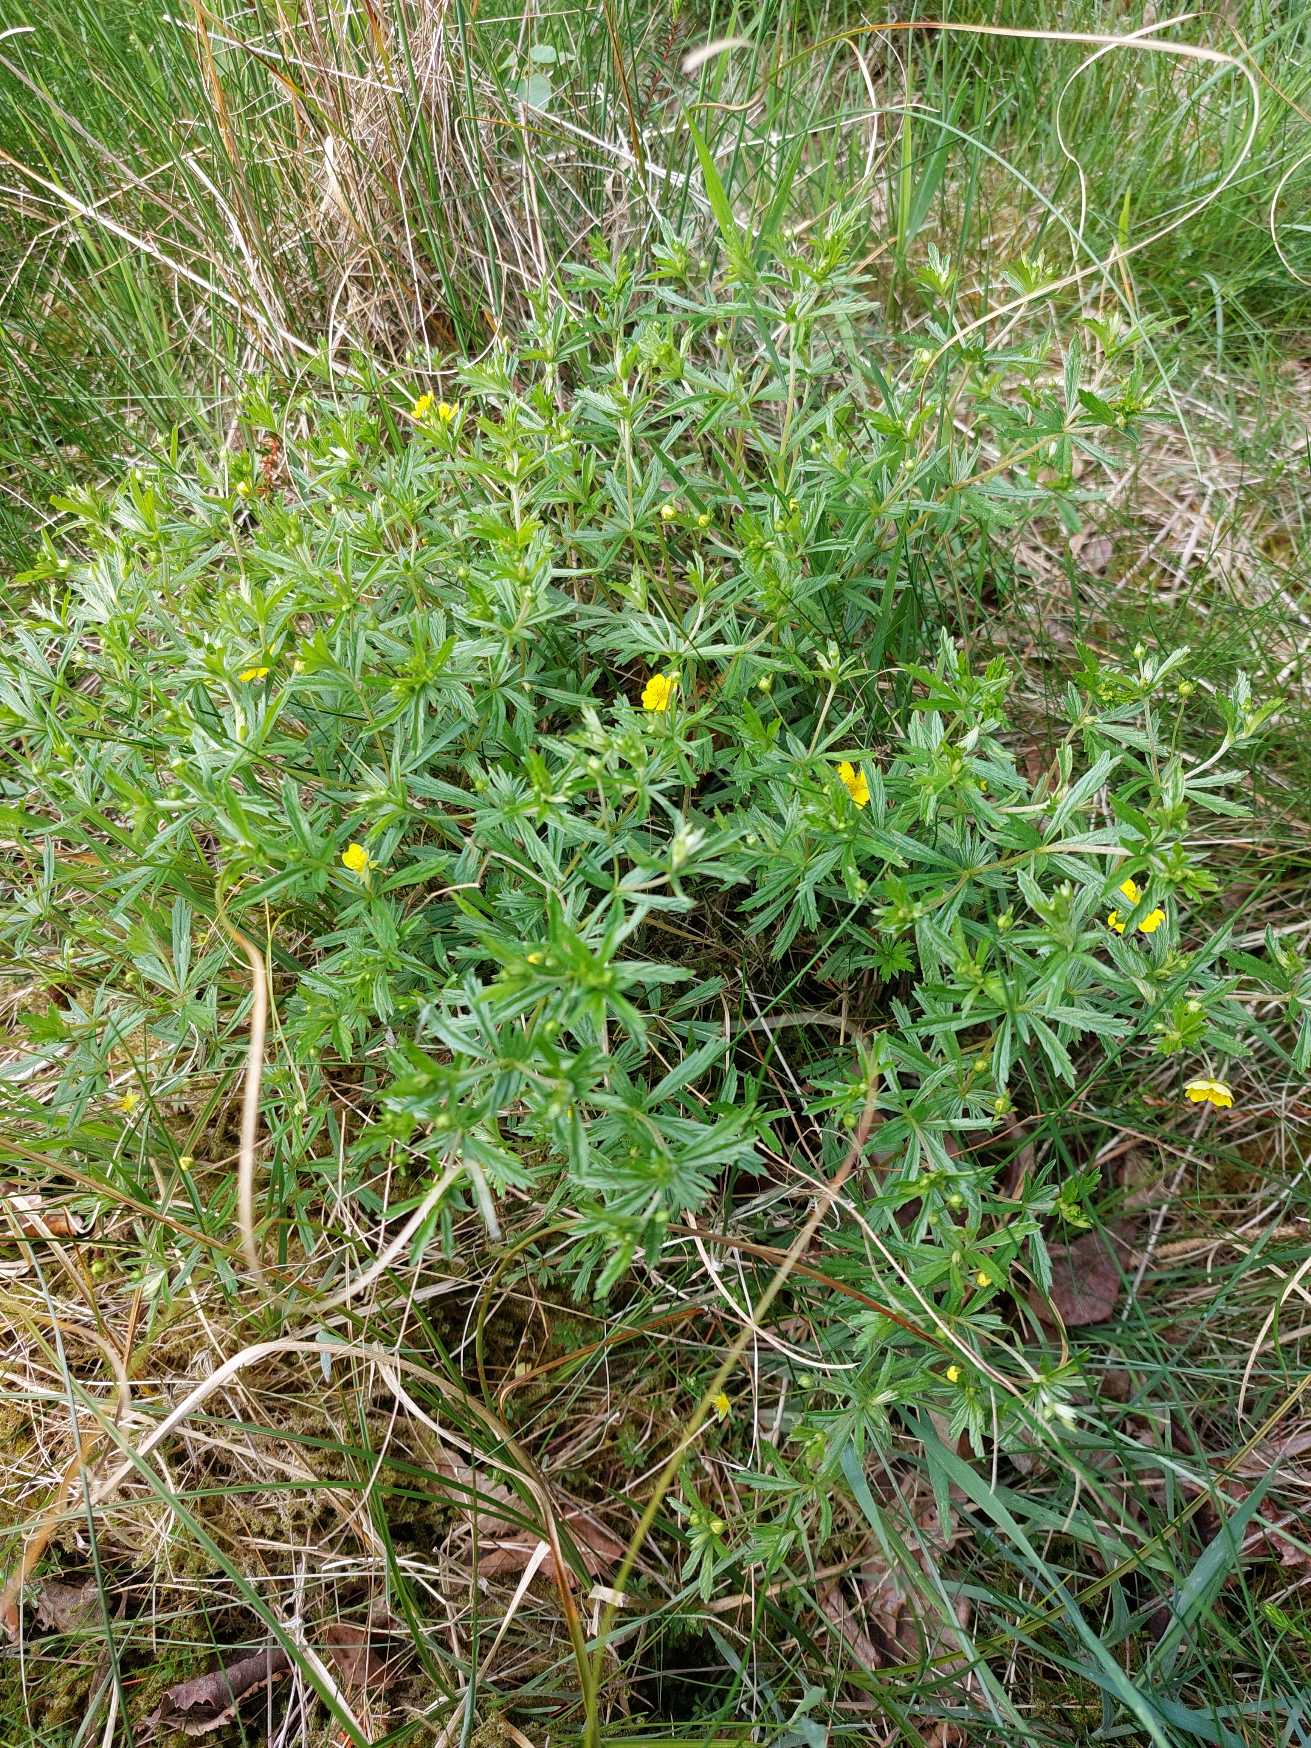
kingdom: Plantae
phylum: Tracheophyta
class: Magnoliopsida
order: Rosales
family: Rosaceae
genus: Potentilla
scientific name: Potentilla erecta
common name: Tormentil
